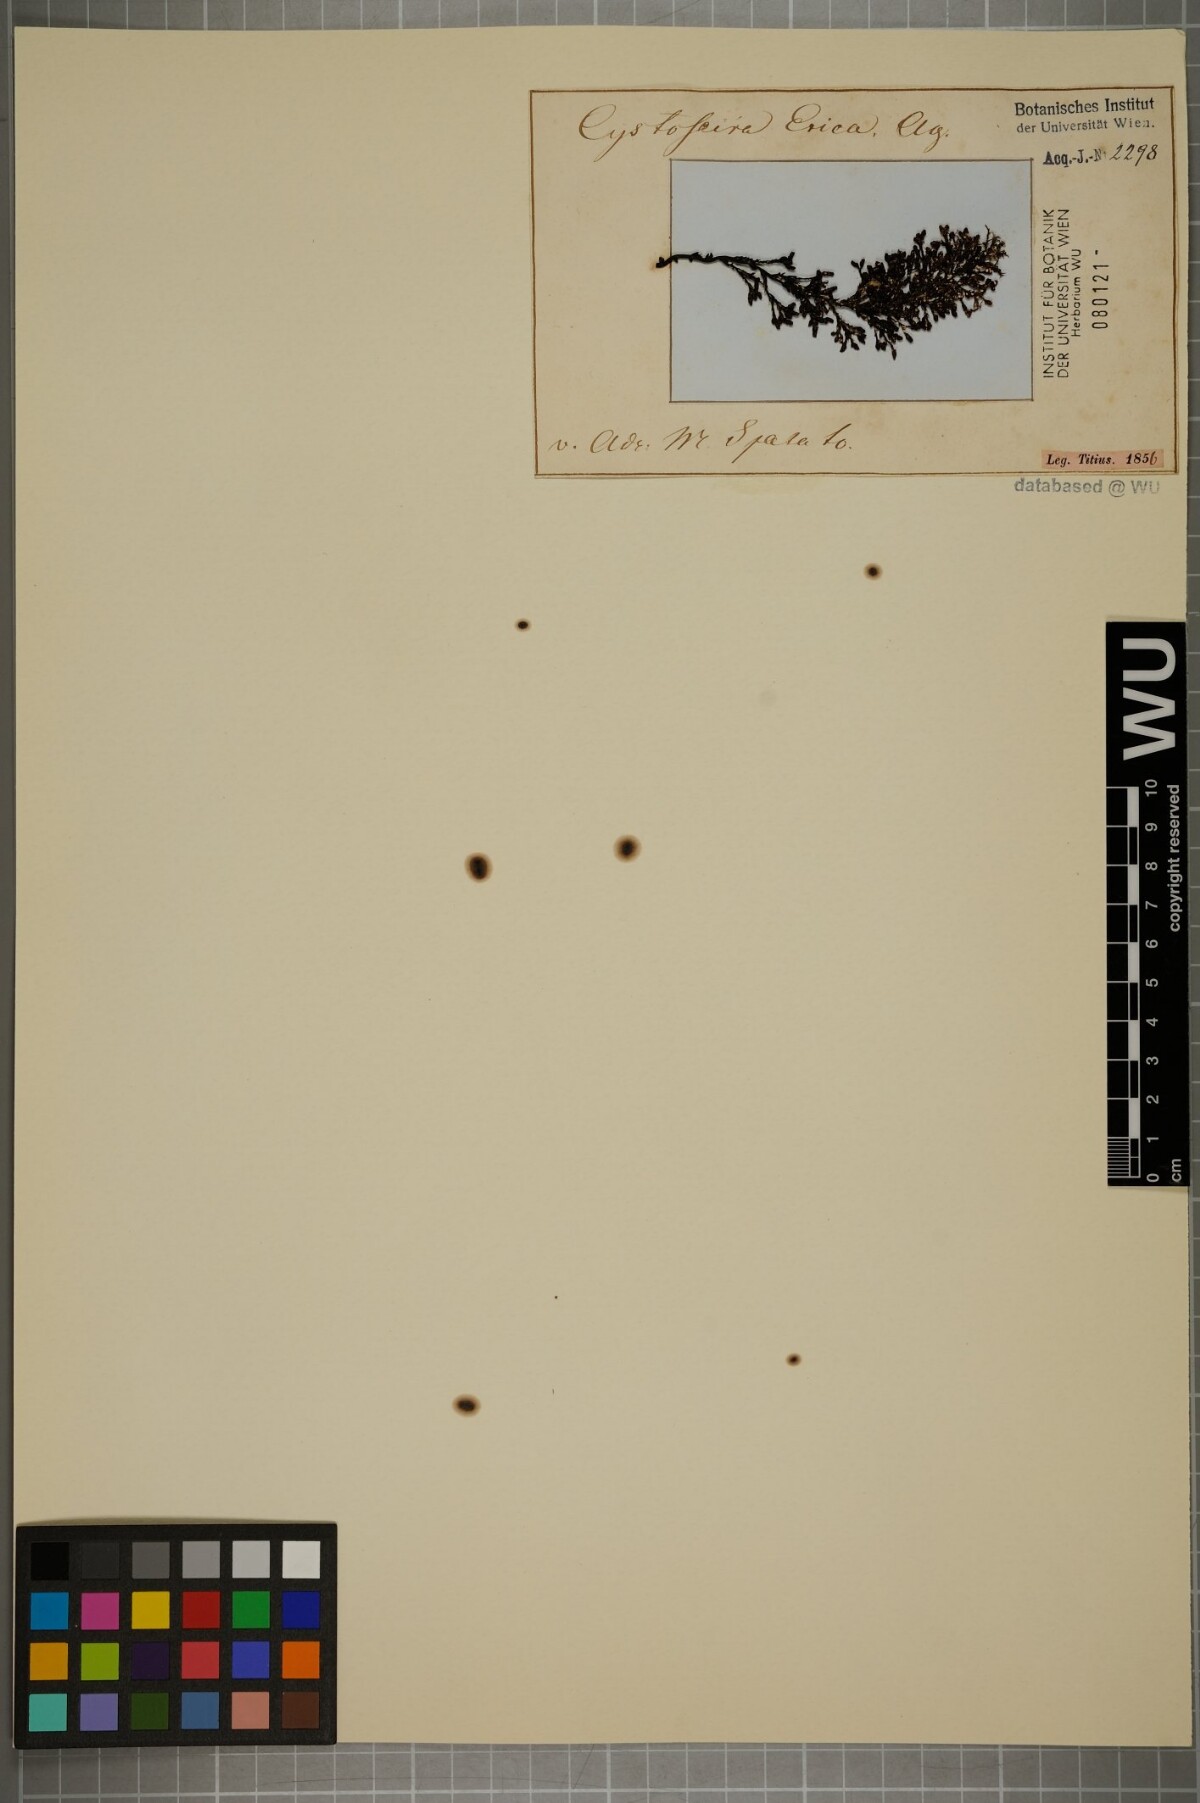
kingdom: Chromista
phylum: Ochrophyta
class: Phaeophyceae
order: Fucales
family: Sargassaceae
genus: Cystoseira
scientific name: Cystoseira
